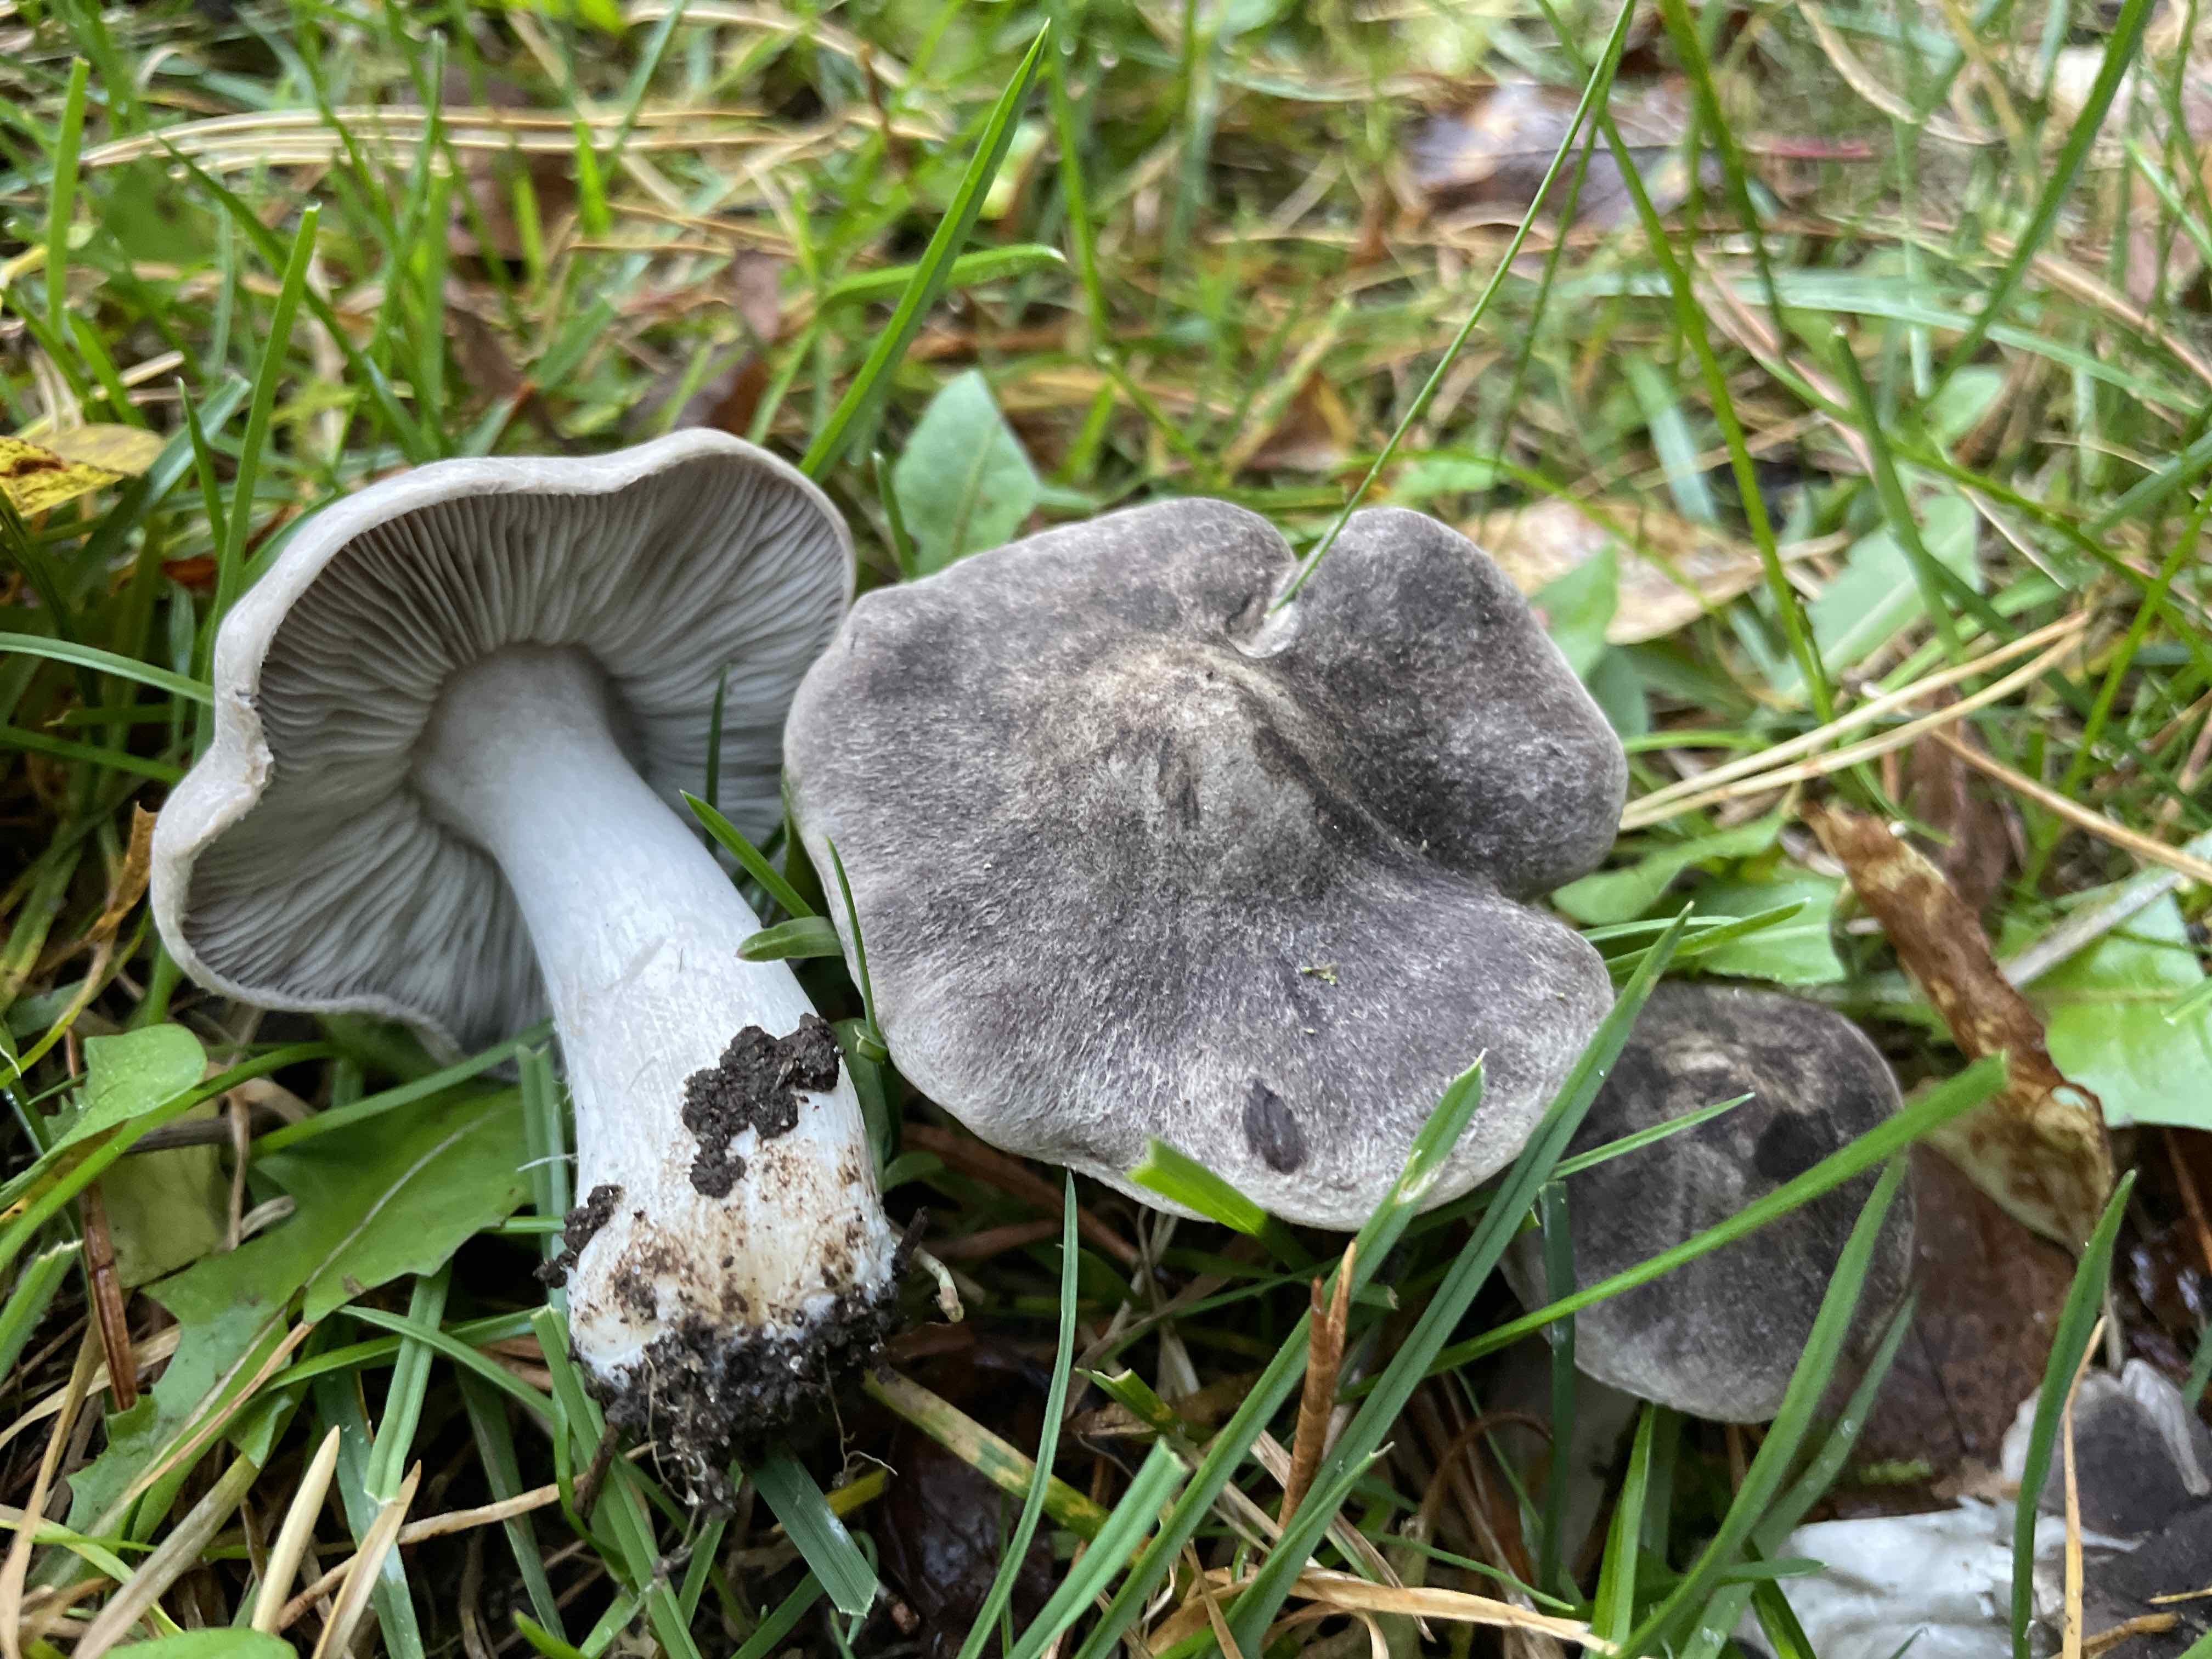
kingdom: Fungi
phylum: Basidiomycota
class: Agaricomycetes
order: Agaricales
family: Tricholomataceae
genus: Tricholoma
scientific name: Tricholoma terreum
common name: jordfarvet ridderhat
